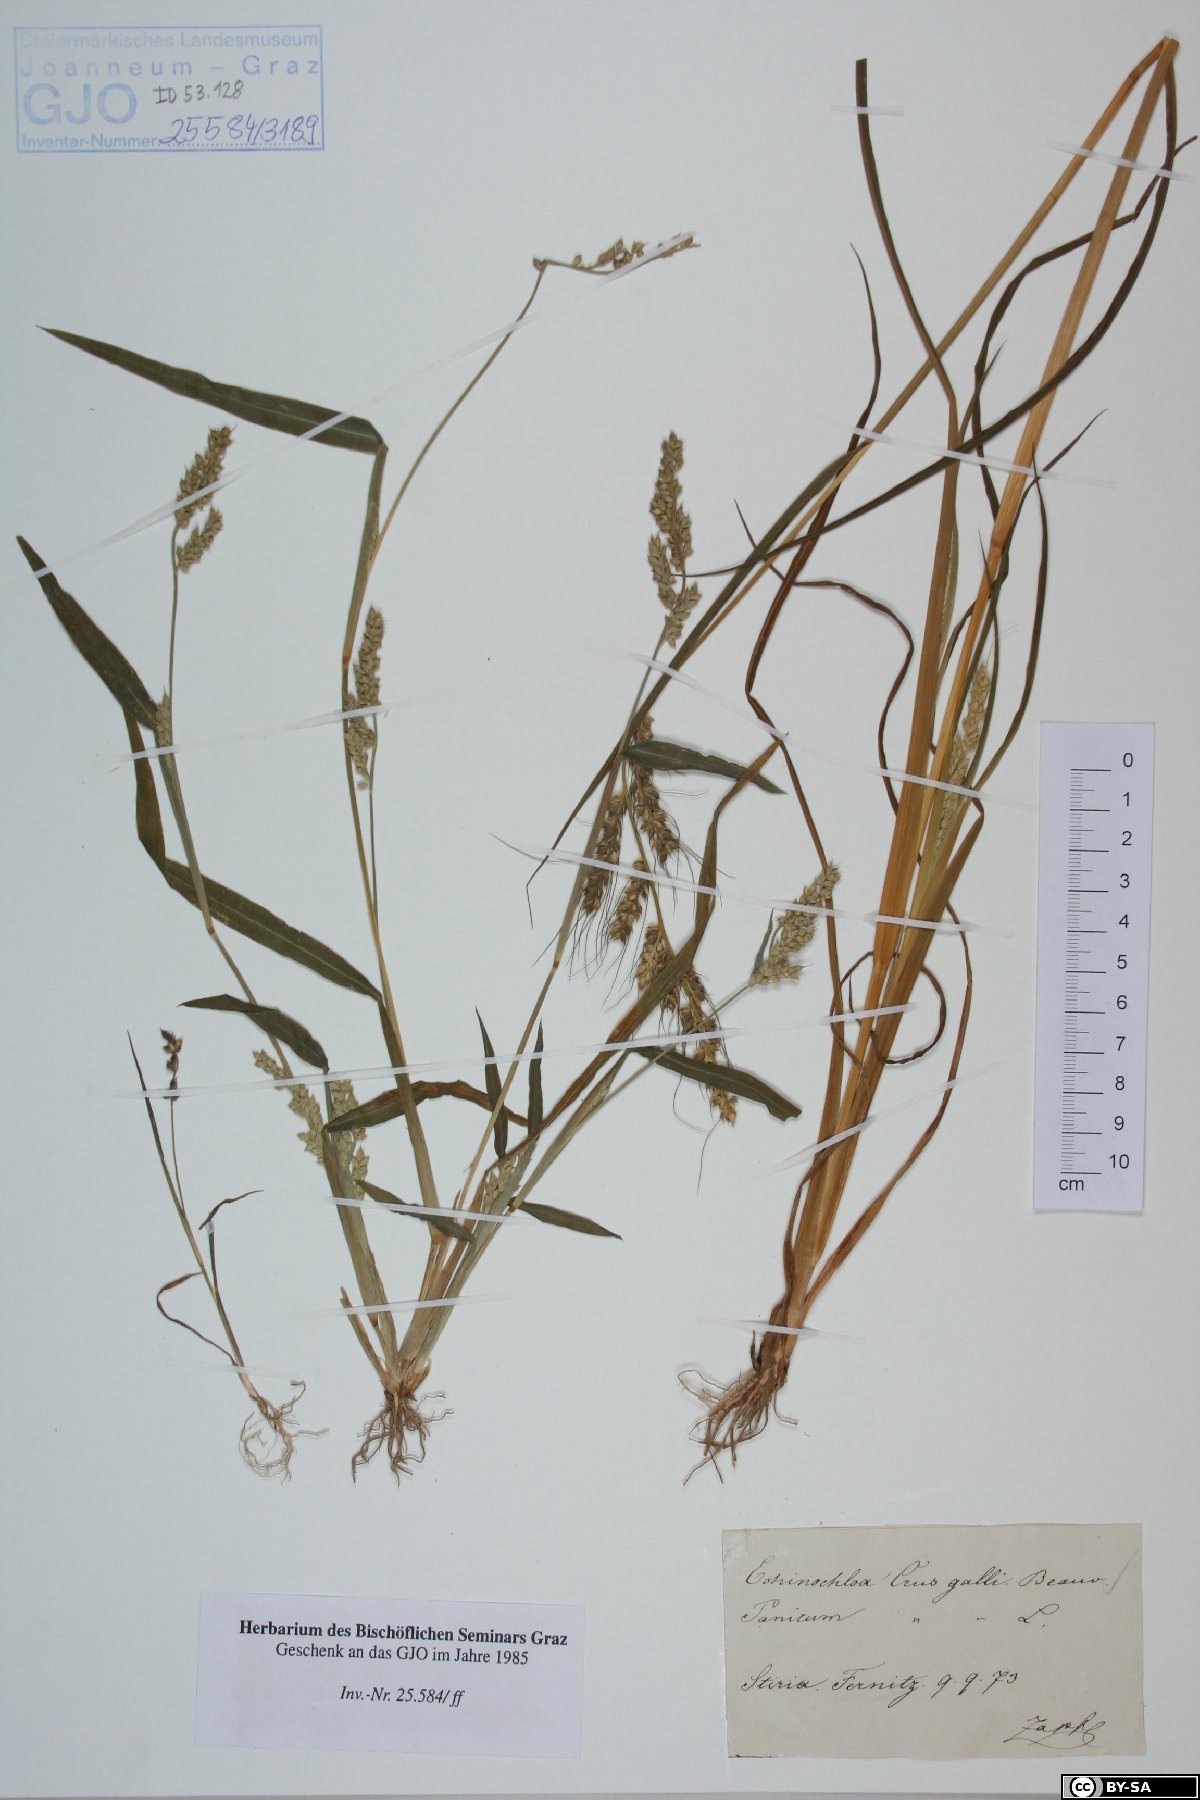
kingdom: Plantae
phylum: Tracheophyta
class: Liliopsida
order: Poales
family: Poaceae
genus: Echinochloa
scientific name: Echinochloa crus-galli
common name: Cockspur
